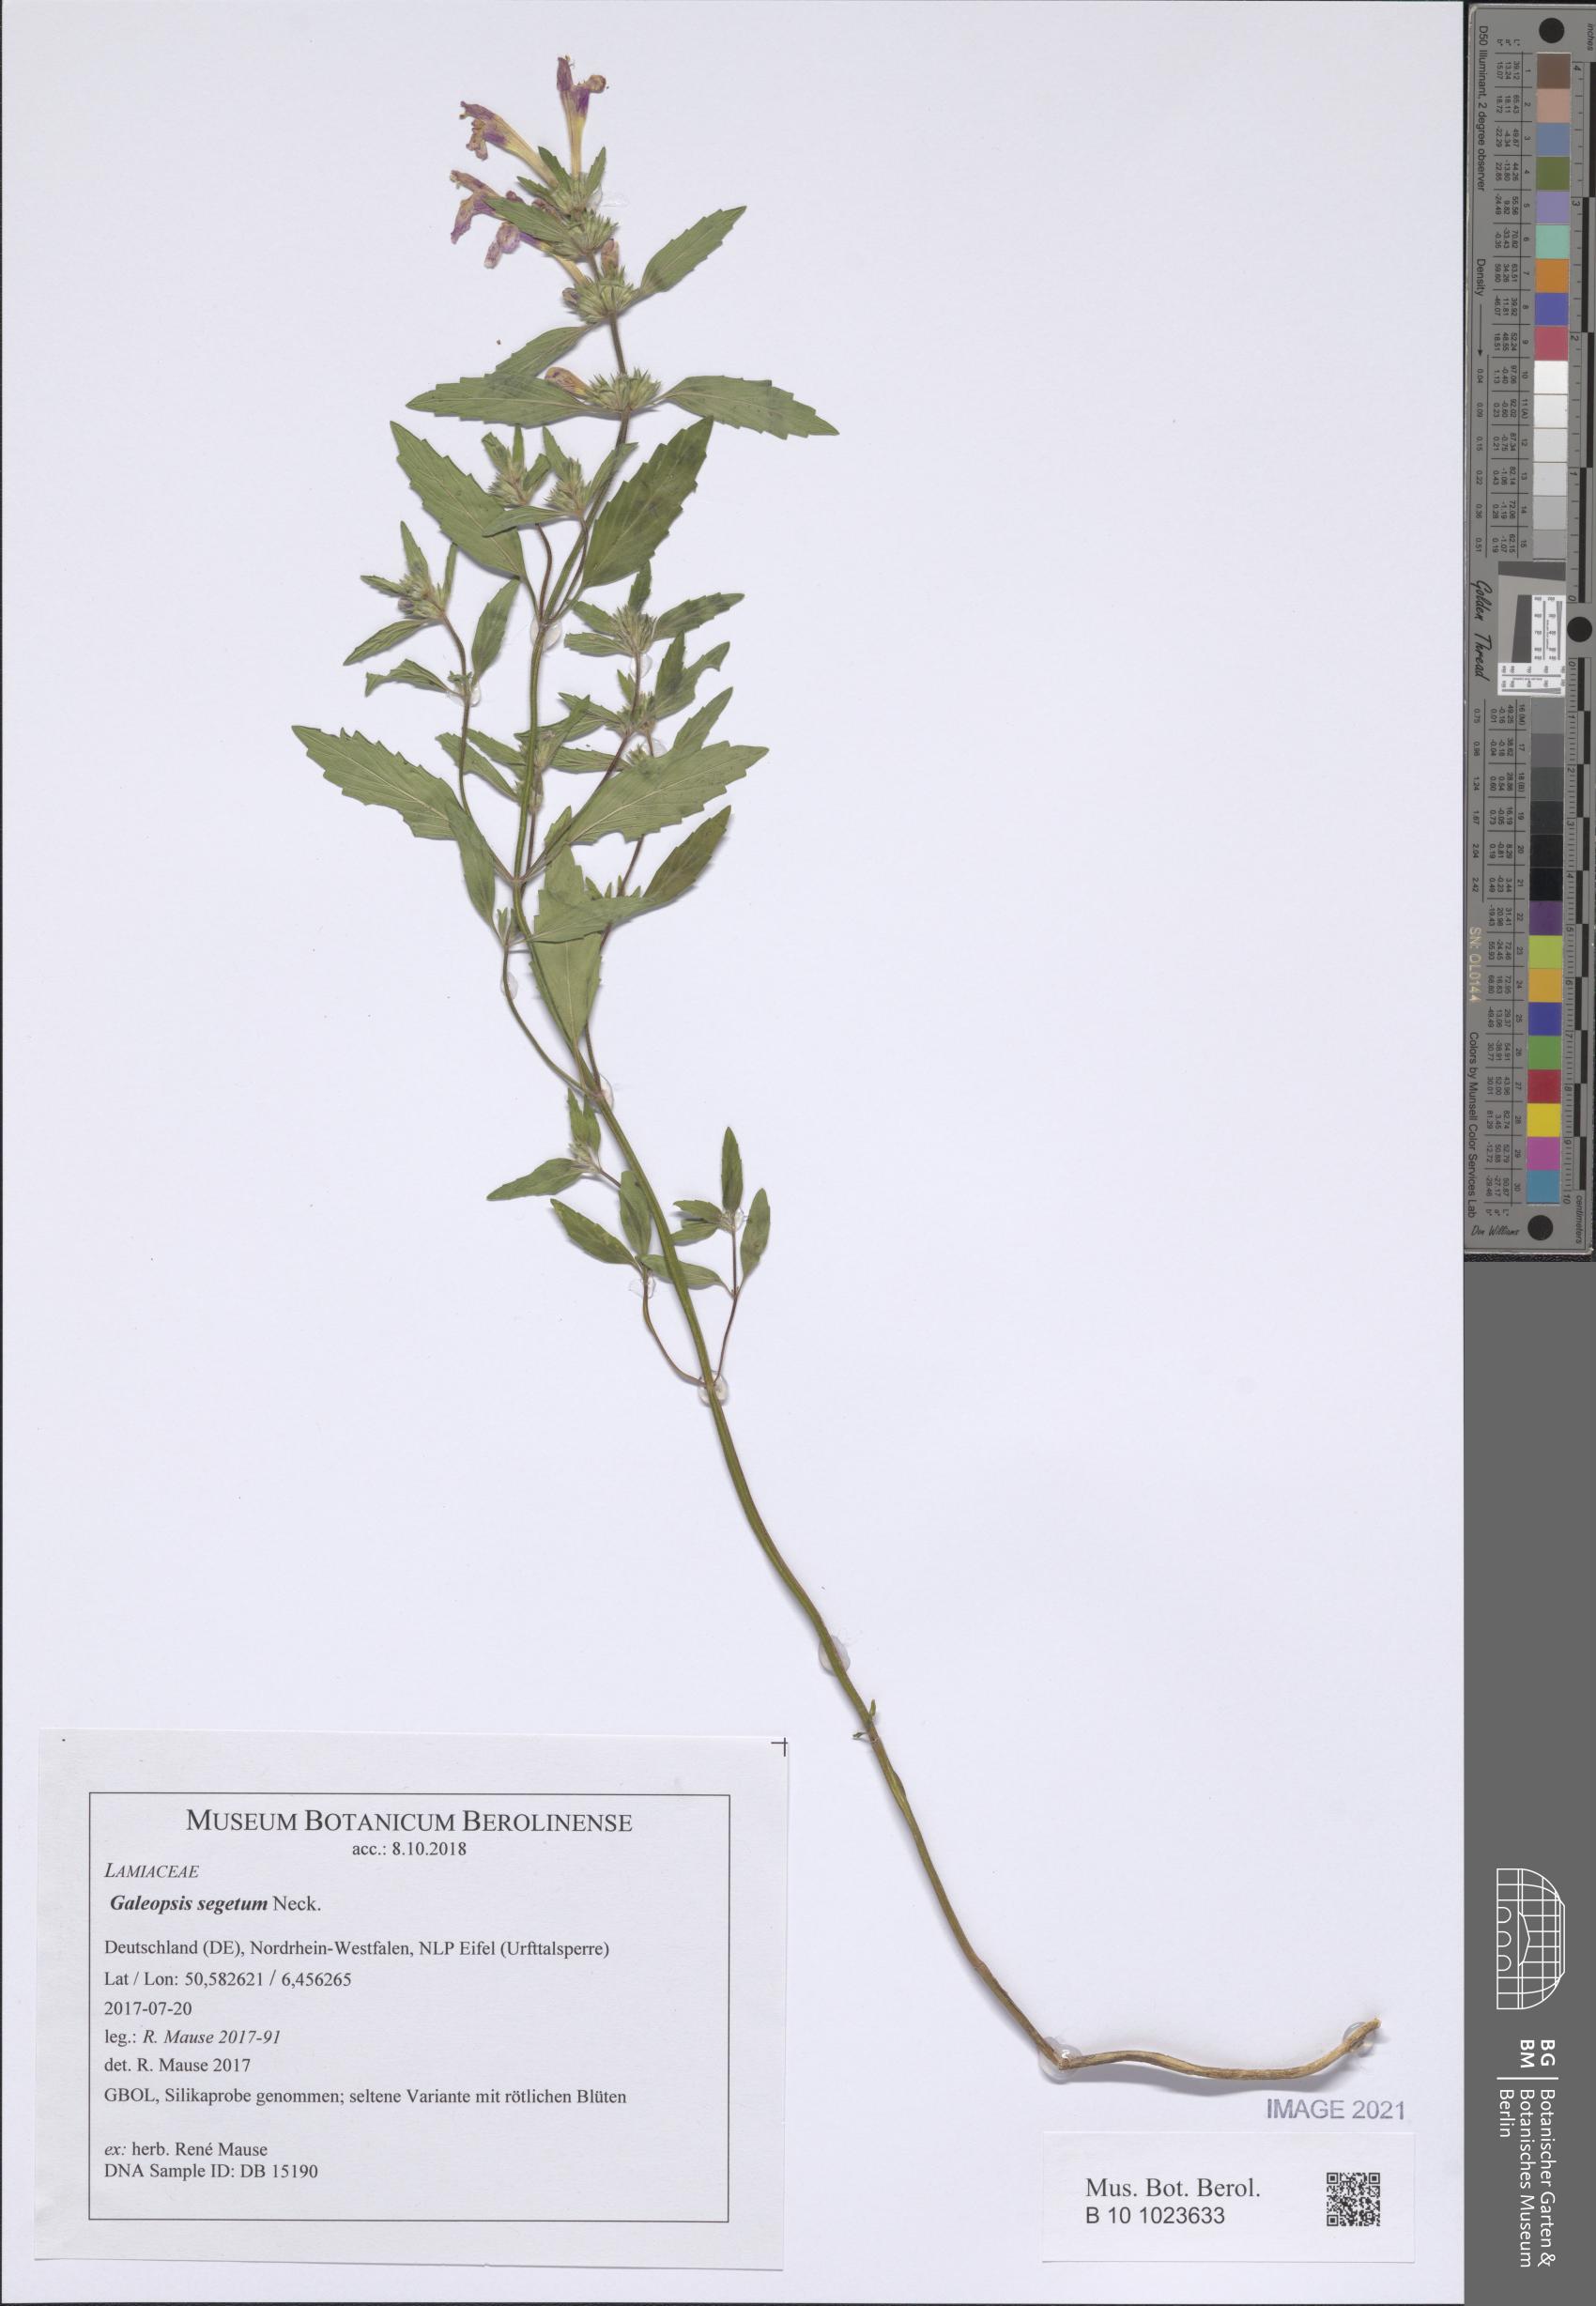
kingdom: Plantae
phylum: Tracheophyta
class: Magnoliopsida
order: Lamiales
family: Lamiaceae
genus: Galeopsis
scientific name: Galeopsis segetum
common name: Downy hemp-nettle
